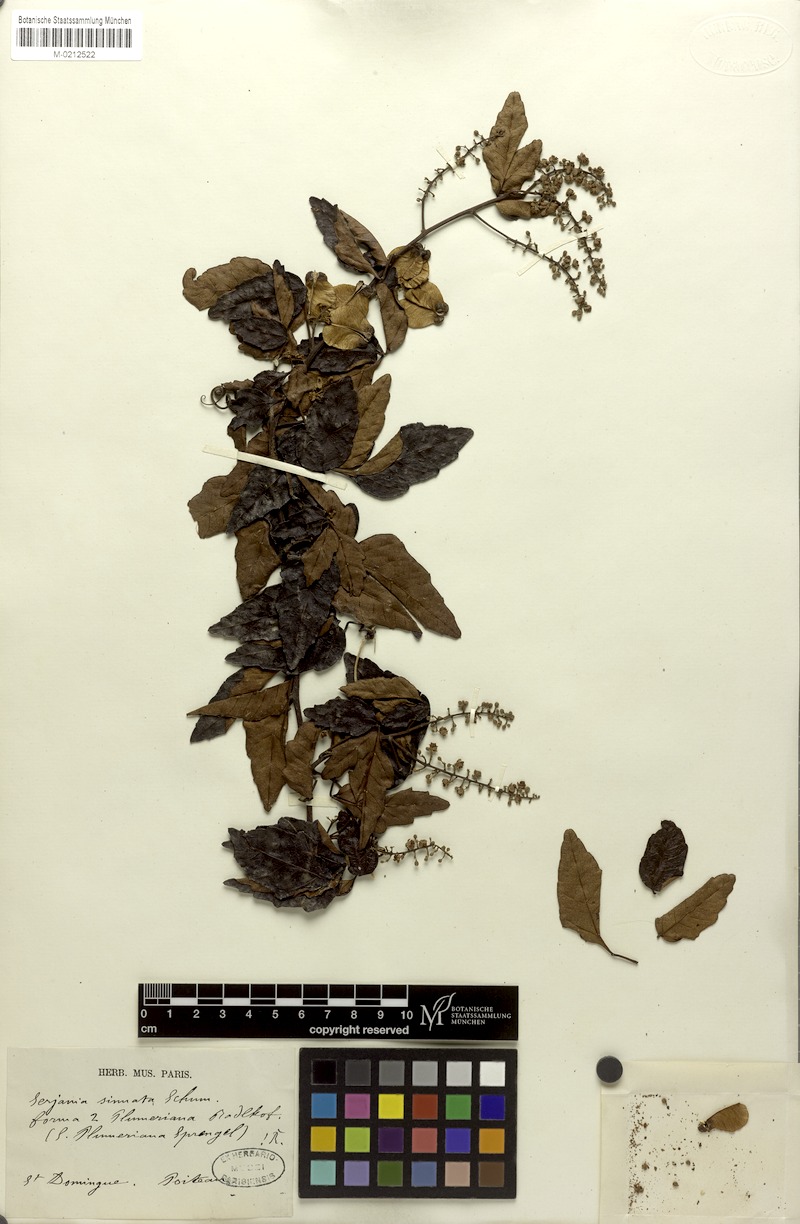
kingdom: Plantae
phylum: Tracheophyta
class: Magnoliopsida
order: Sapindales
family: Sapindaceae
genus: Serjania
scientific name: Serjania seriana
